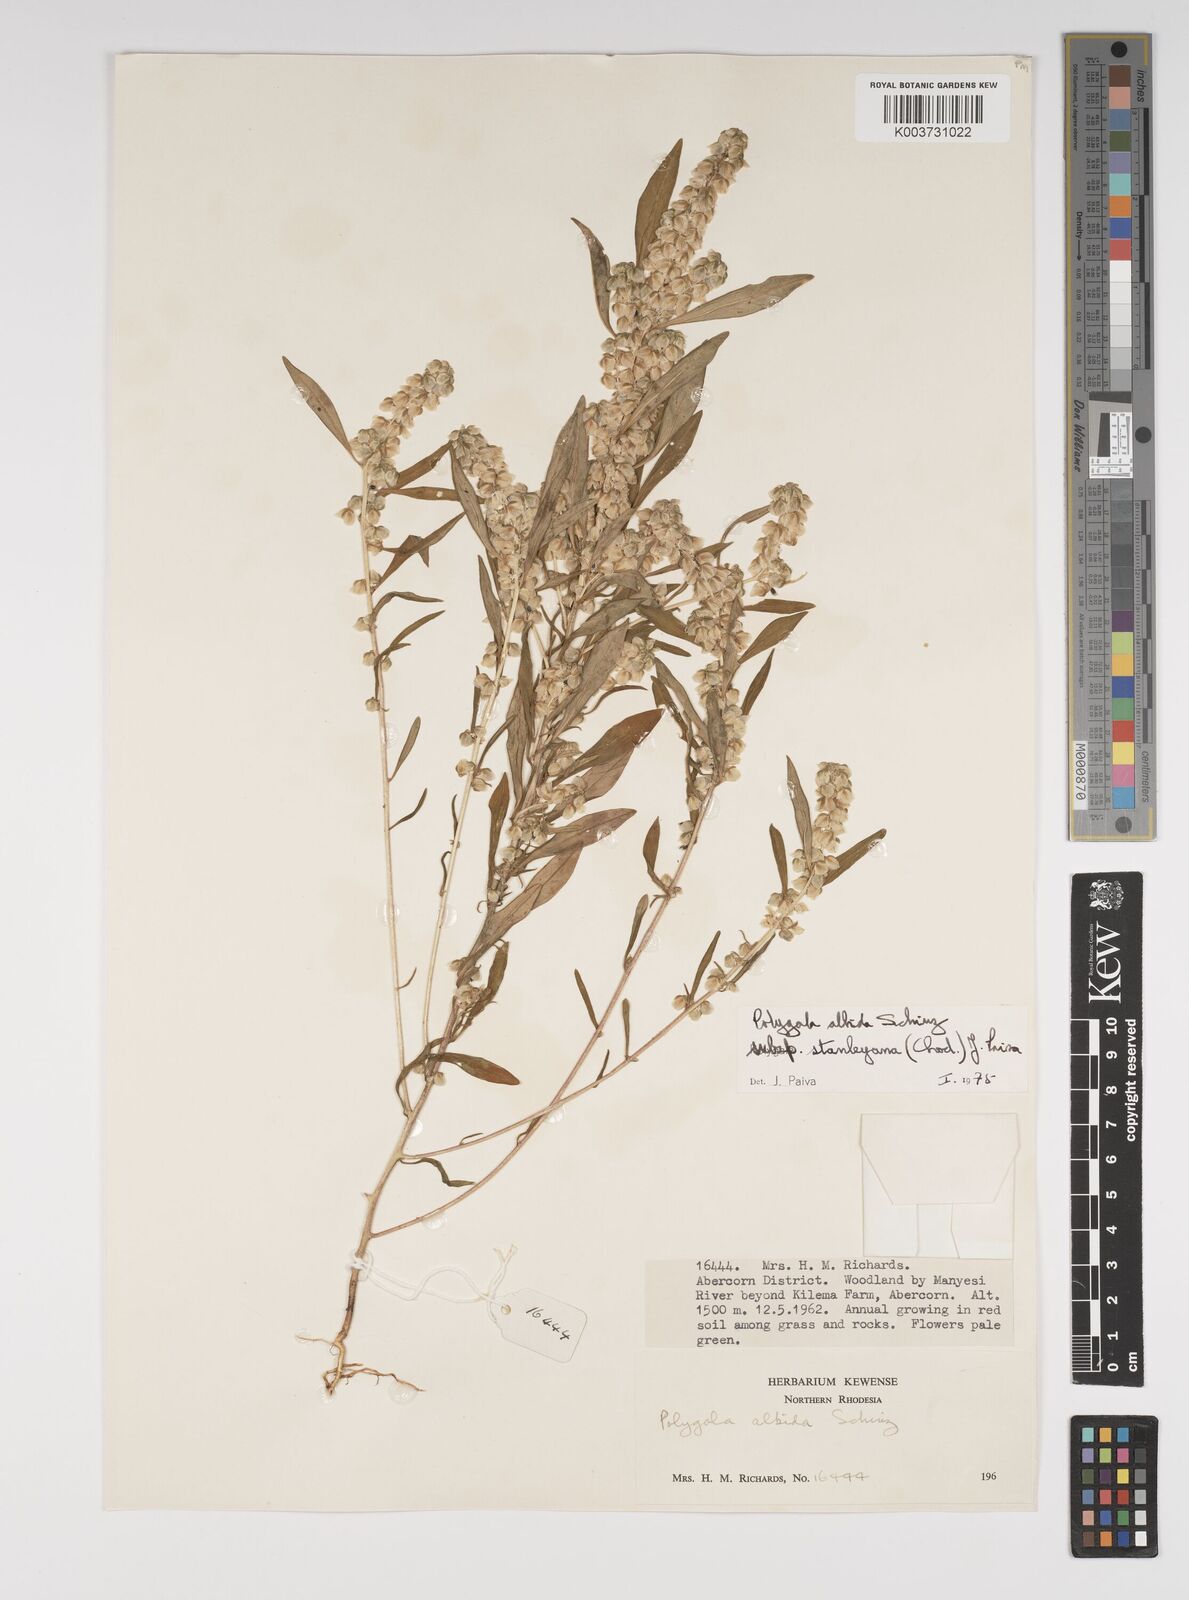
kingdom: Plantae
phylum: Tracheophyta
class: Magnoliopsida
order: Fabales
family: Polygalaceae
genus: Polygala
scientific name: Polygala albida
